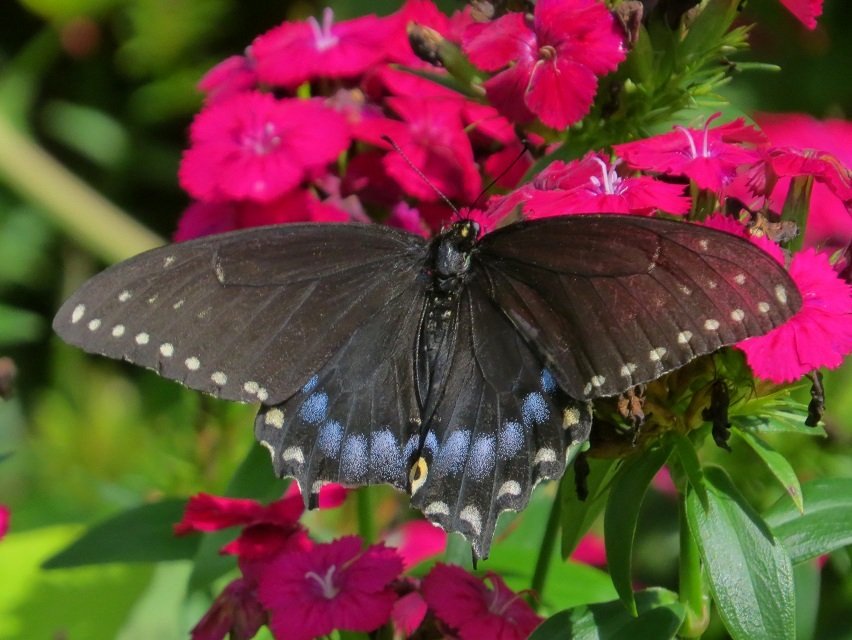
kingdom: Animalia
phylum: Arthropoda
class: Insecta
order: Lepidoptera
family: Papilionidae
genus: Papilio
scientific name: Papilio polyxenes
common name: Black Swallowtail
